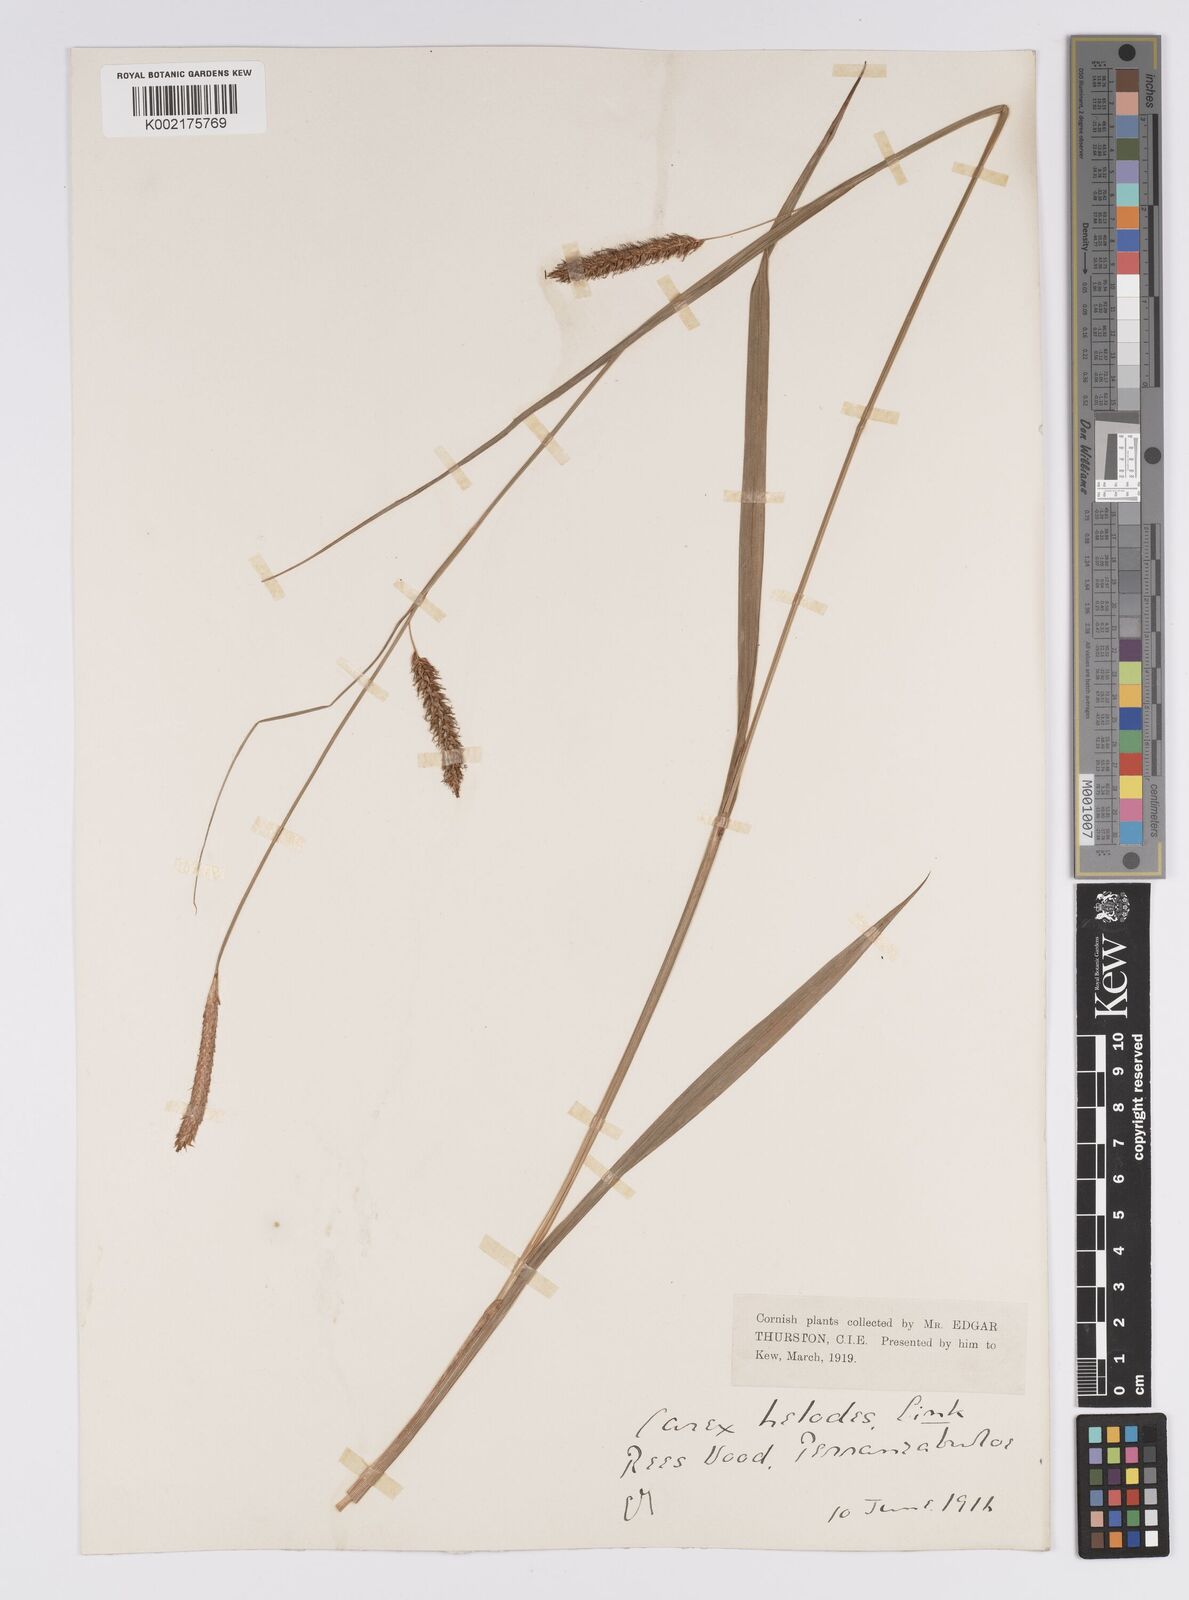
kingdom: Plantae
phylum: Tracheophyta
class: Liliopsida
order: Poales
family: Cyperaceae
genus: Carex
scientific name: Carex laevigata
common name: Smooth-stalked sedge
